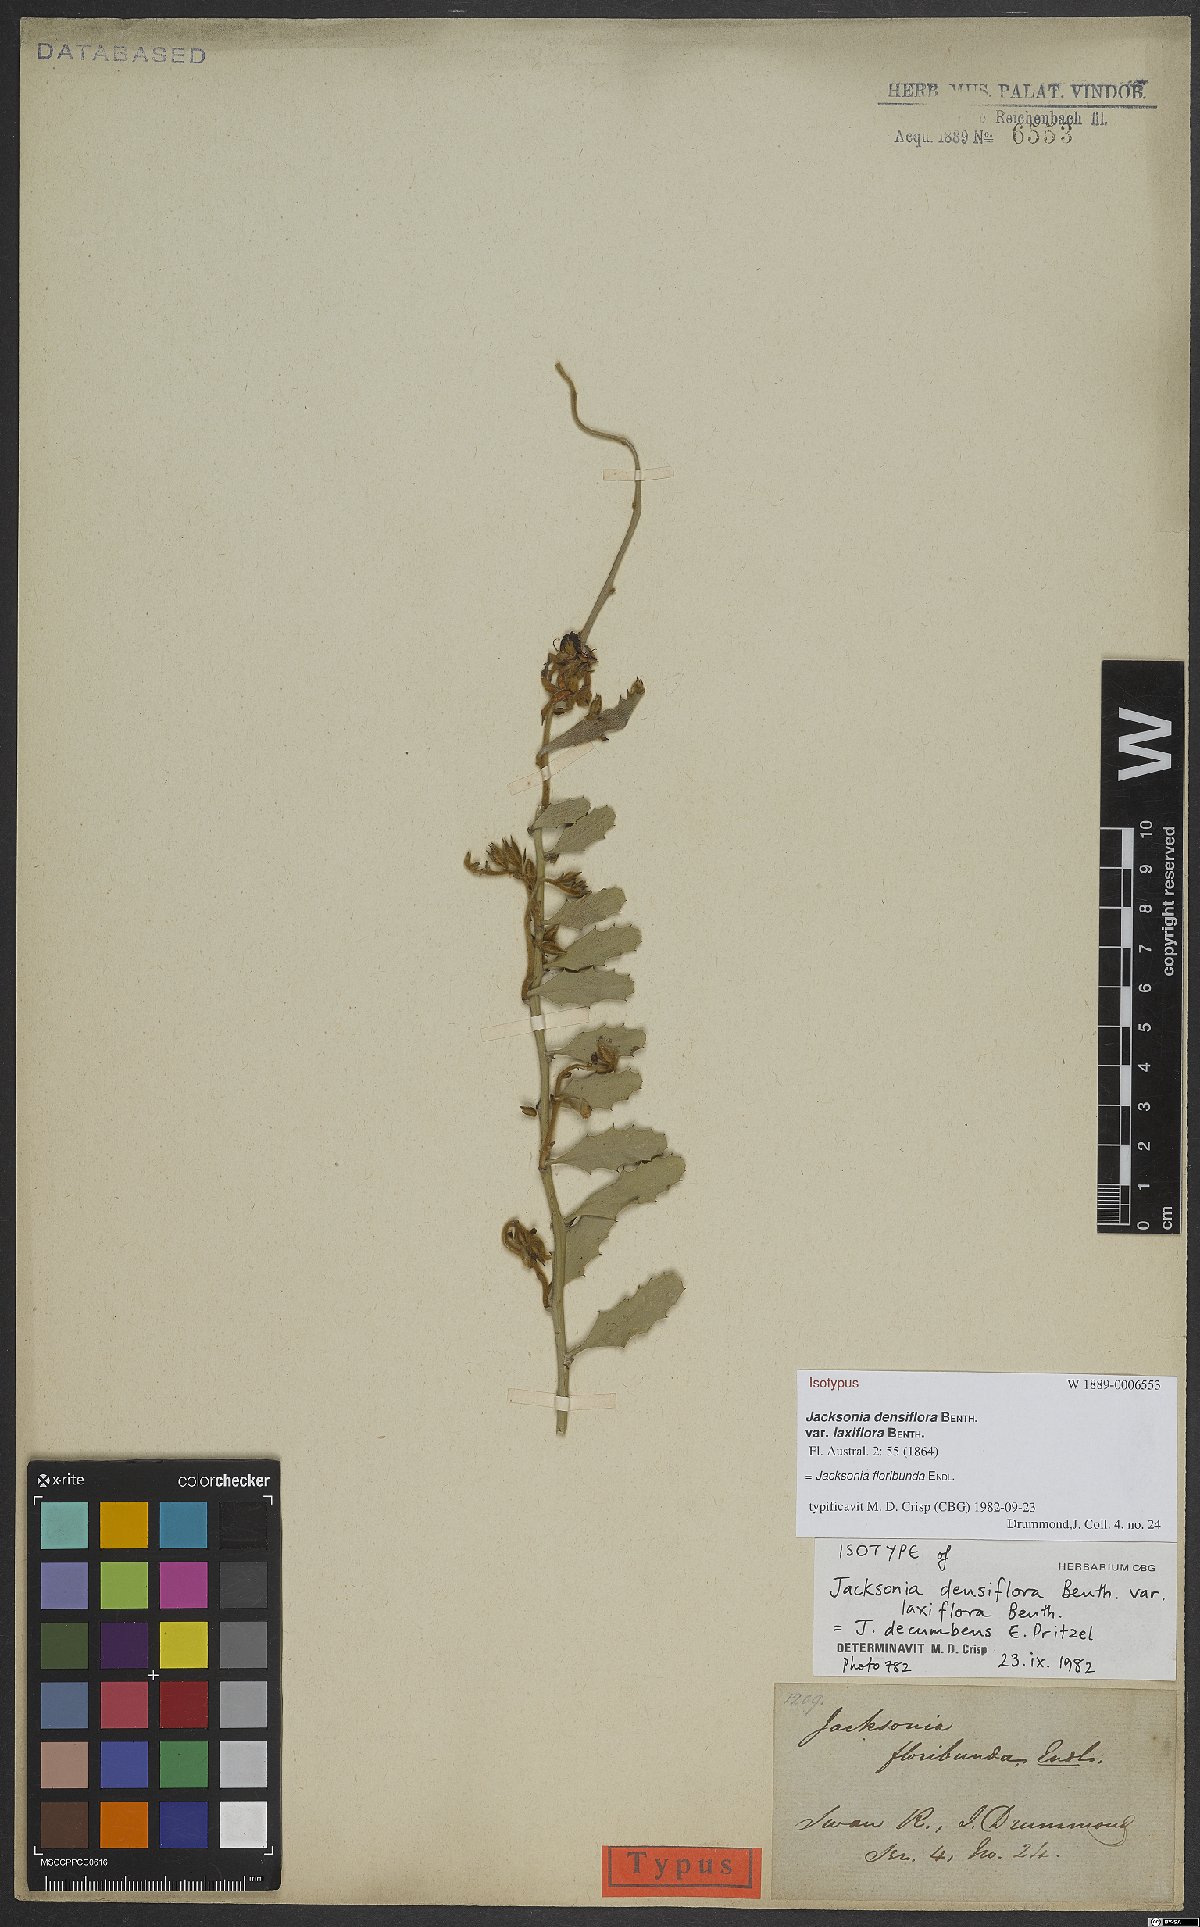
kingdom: Plantae
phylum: Tracheophyta
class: Magnoliopsida
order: Fabales
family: Fabaceae
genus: Jacksonia
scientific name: Jacksonia floribunda
